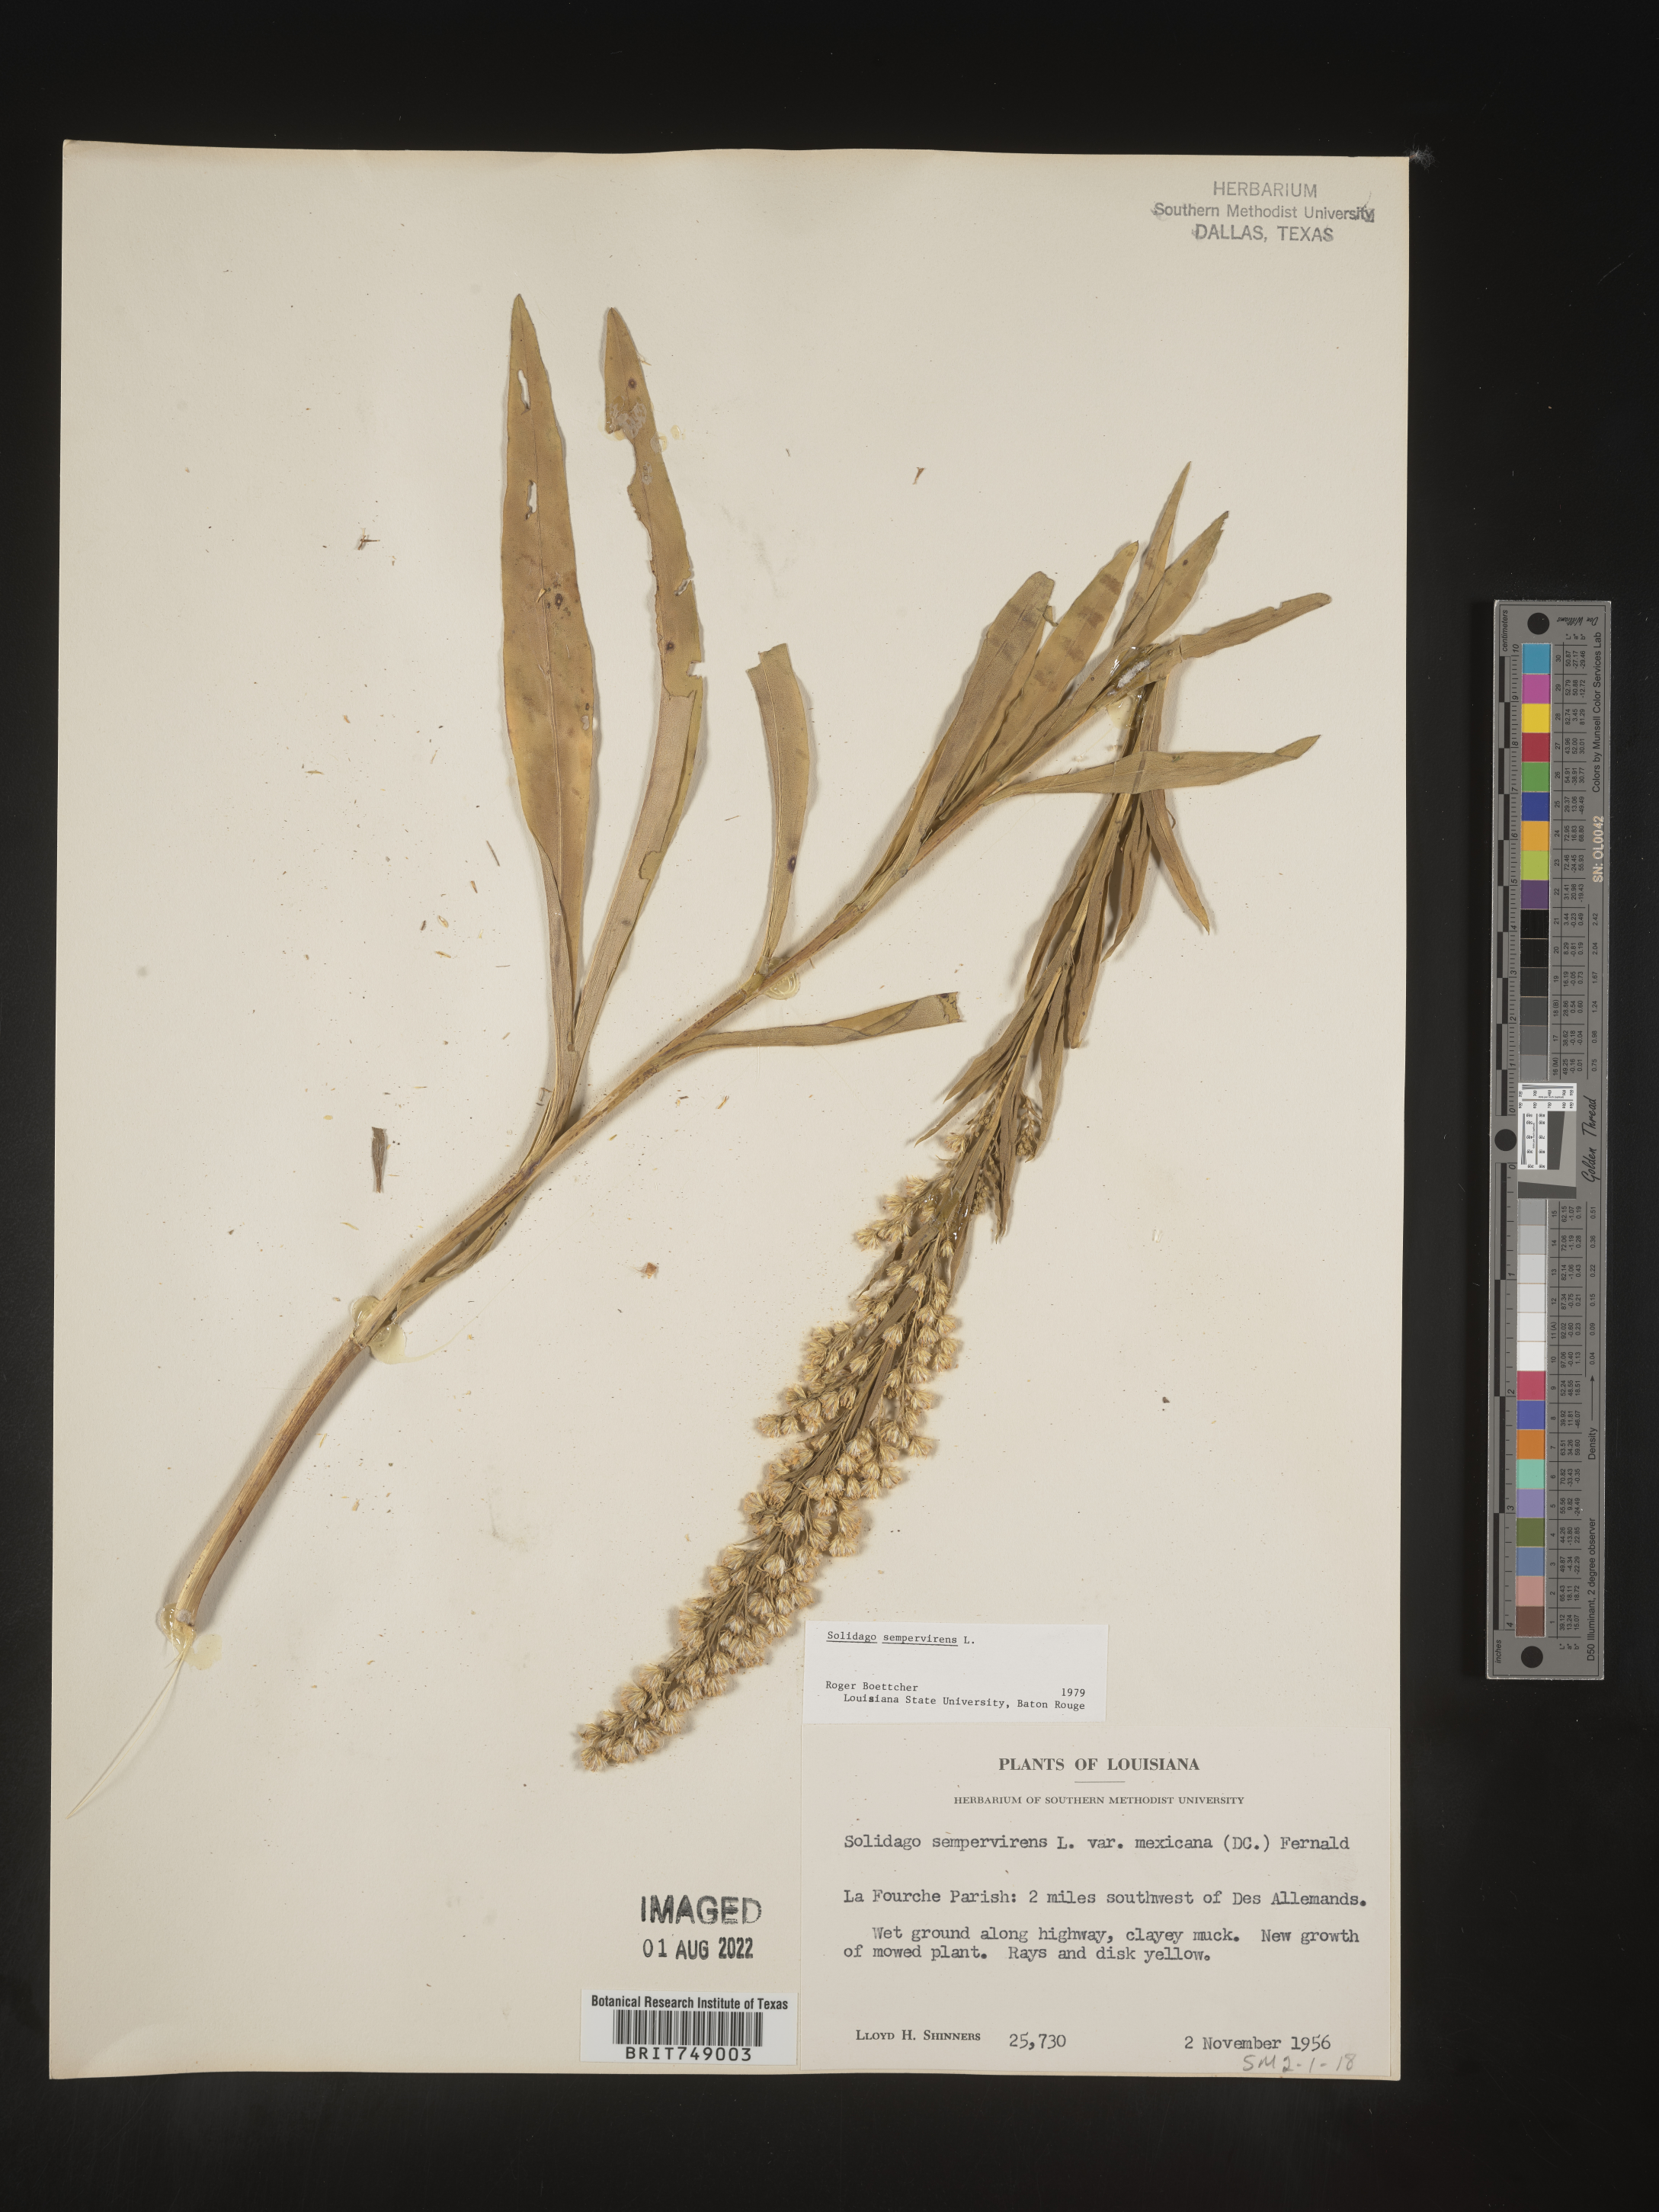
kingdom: Plantae
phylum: Tracheophyta
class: Magnoliopsida
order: Asterales
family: Asteraceae
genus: Solidago
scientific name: Solidago sempervirens
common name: Salt-marsh goldenrod
